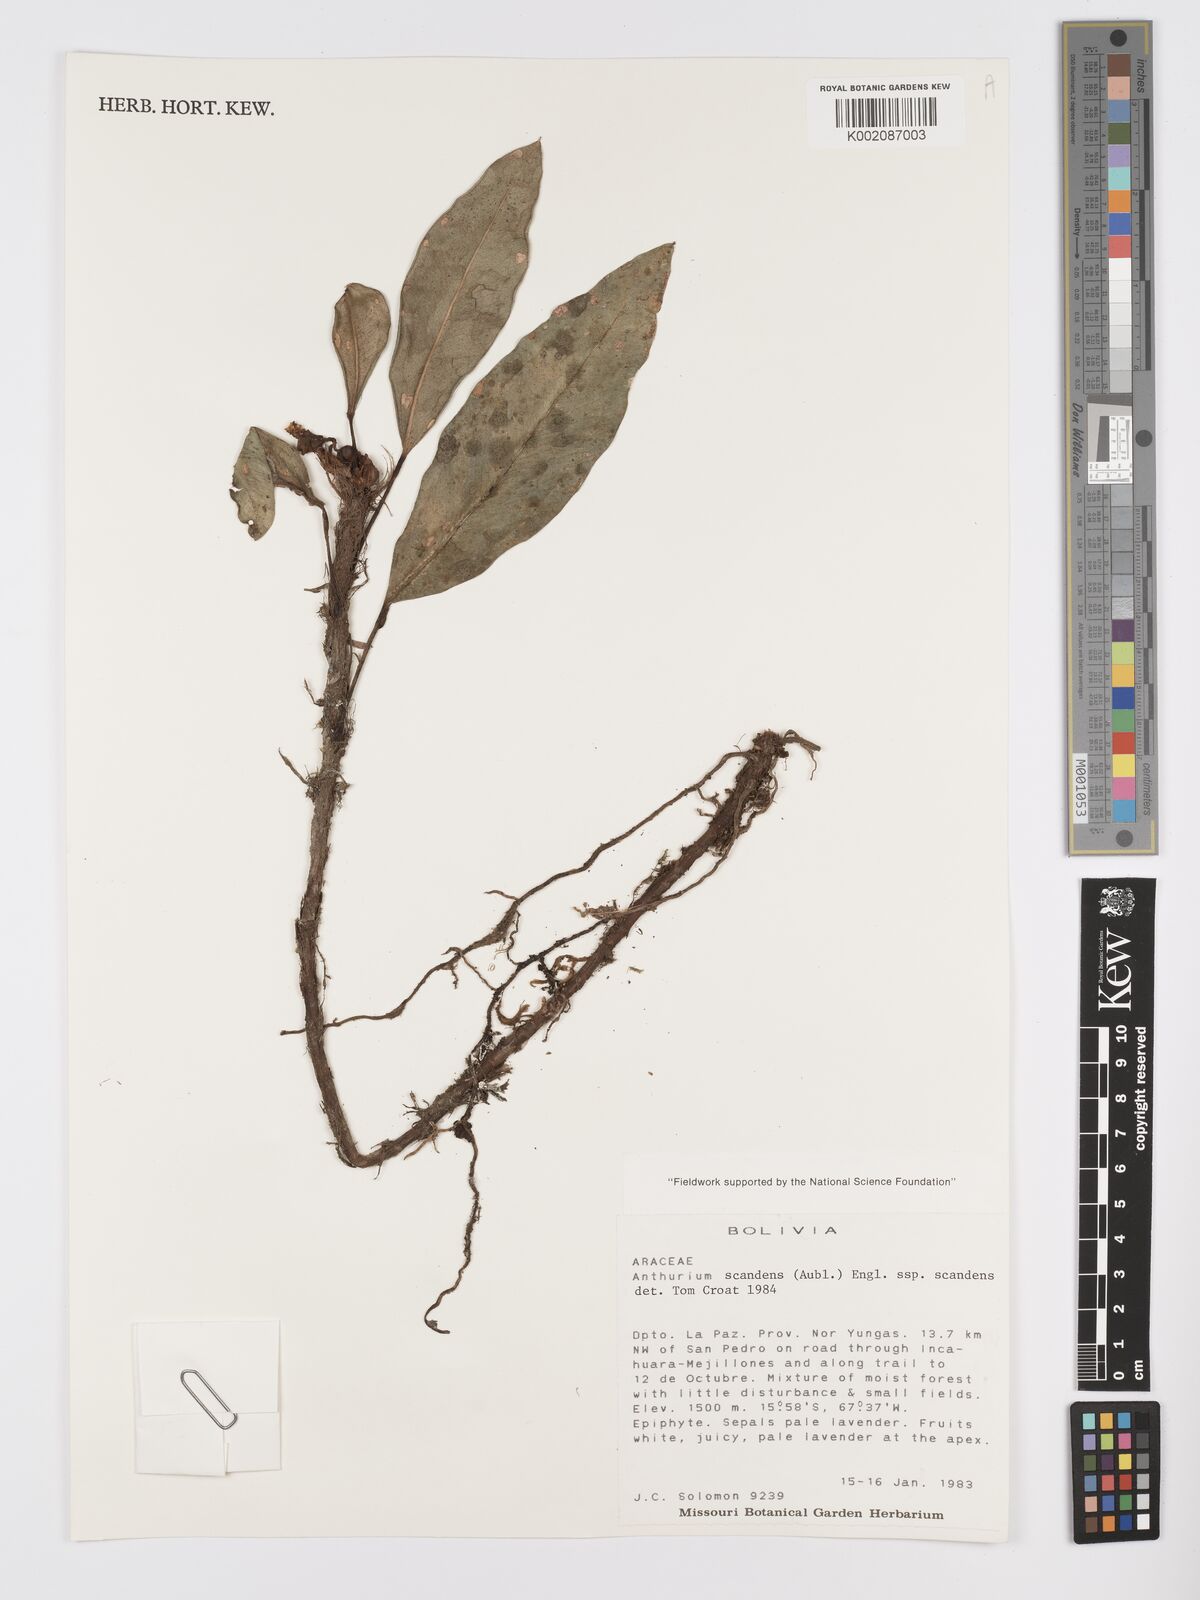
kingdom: Plantae
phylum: Tracheophyta
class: Liliopsida
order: Alismatales
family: Araceae
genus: Anthurium
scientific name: Anthurium scandens
